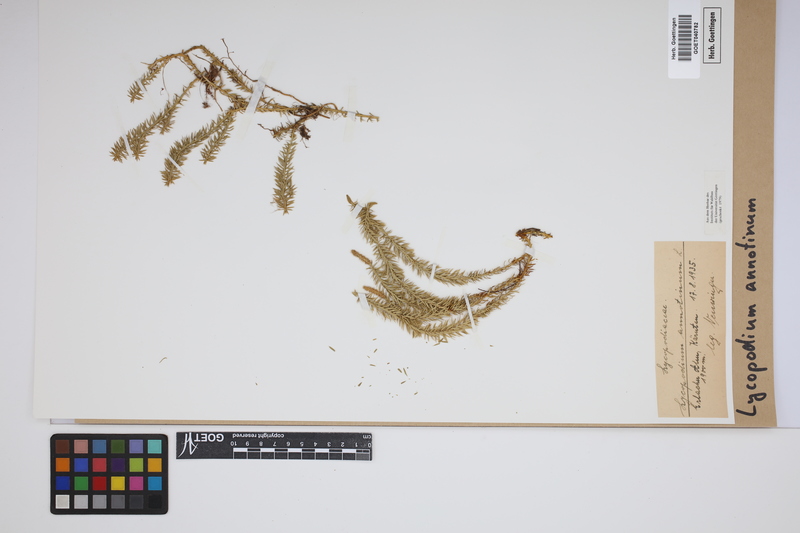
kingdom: Plantae
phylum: Tracheophyta
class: Lycopodiopsida
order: Lycopodiales
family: Lycopodiaceae
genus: Spinulum
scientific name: Spinulum annotinum
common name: Interrupted club-moss
